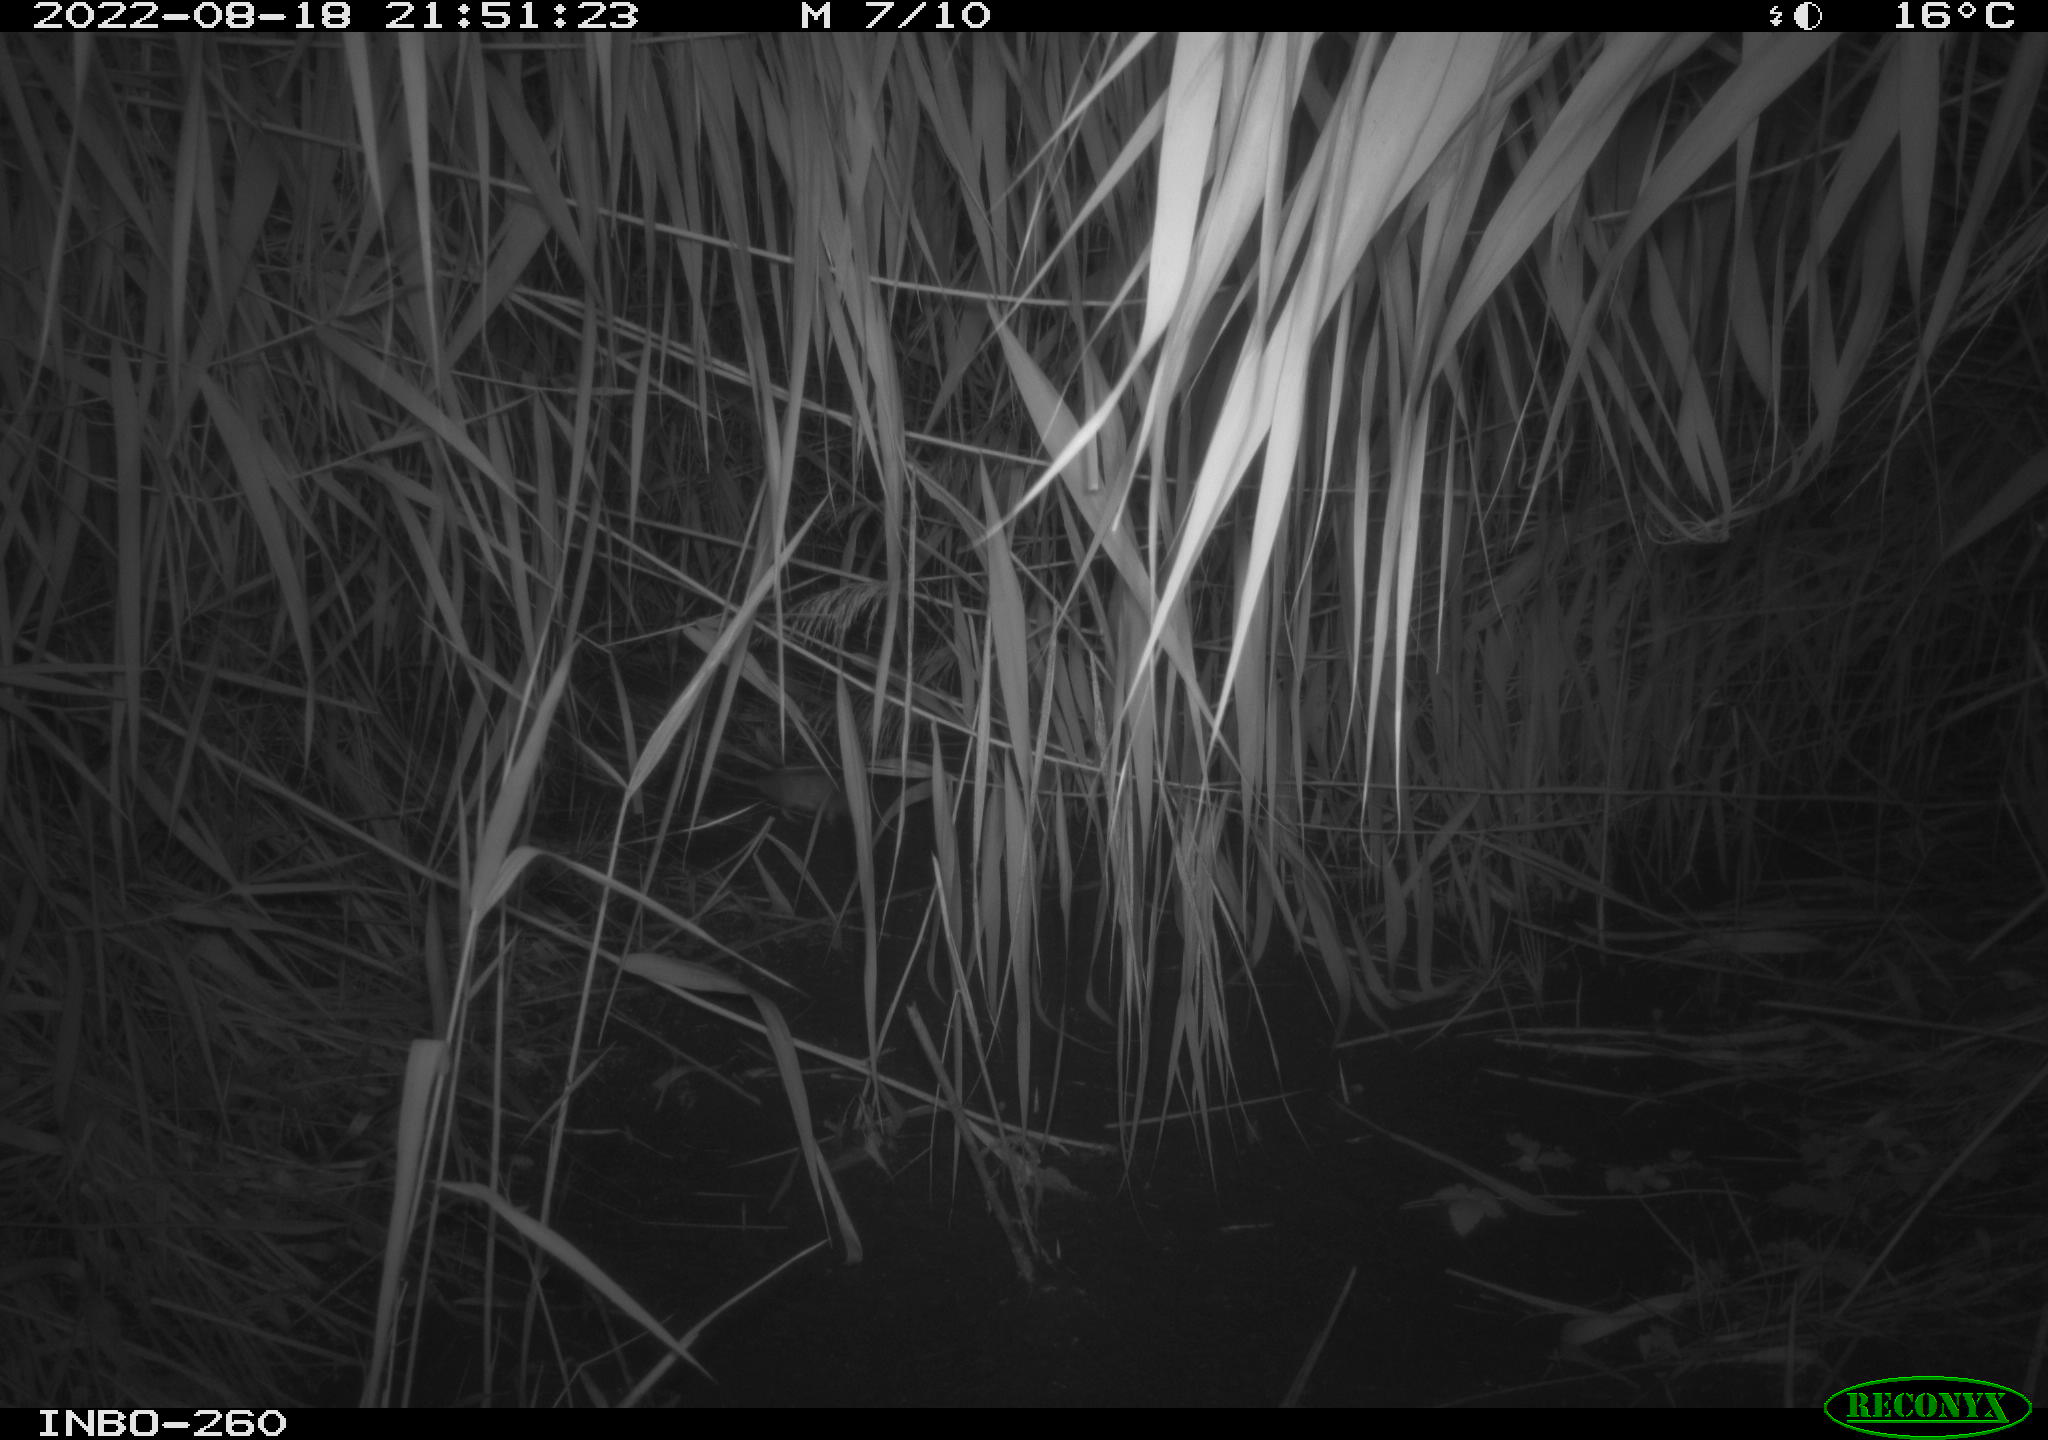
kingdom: Animalia
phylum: Chordata
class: Mammalia
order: Rodentia
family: Muridae
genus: Apodemus
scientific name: Apodemus sylvaticus
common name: Wood mouse
